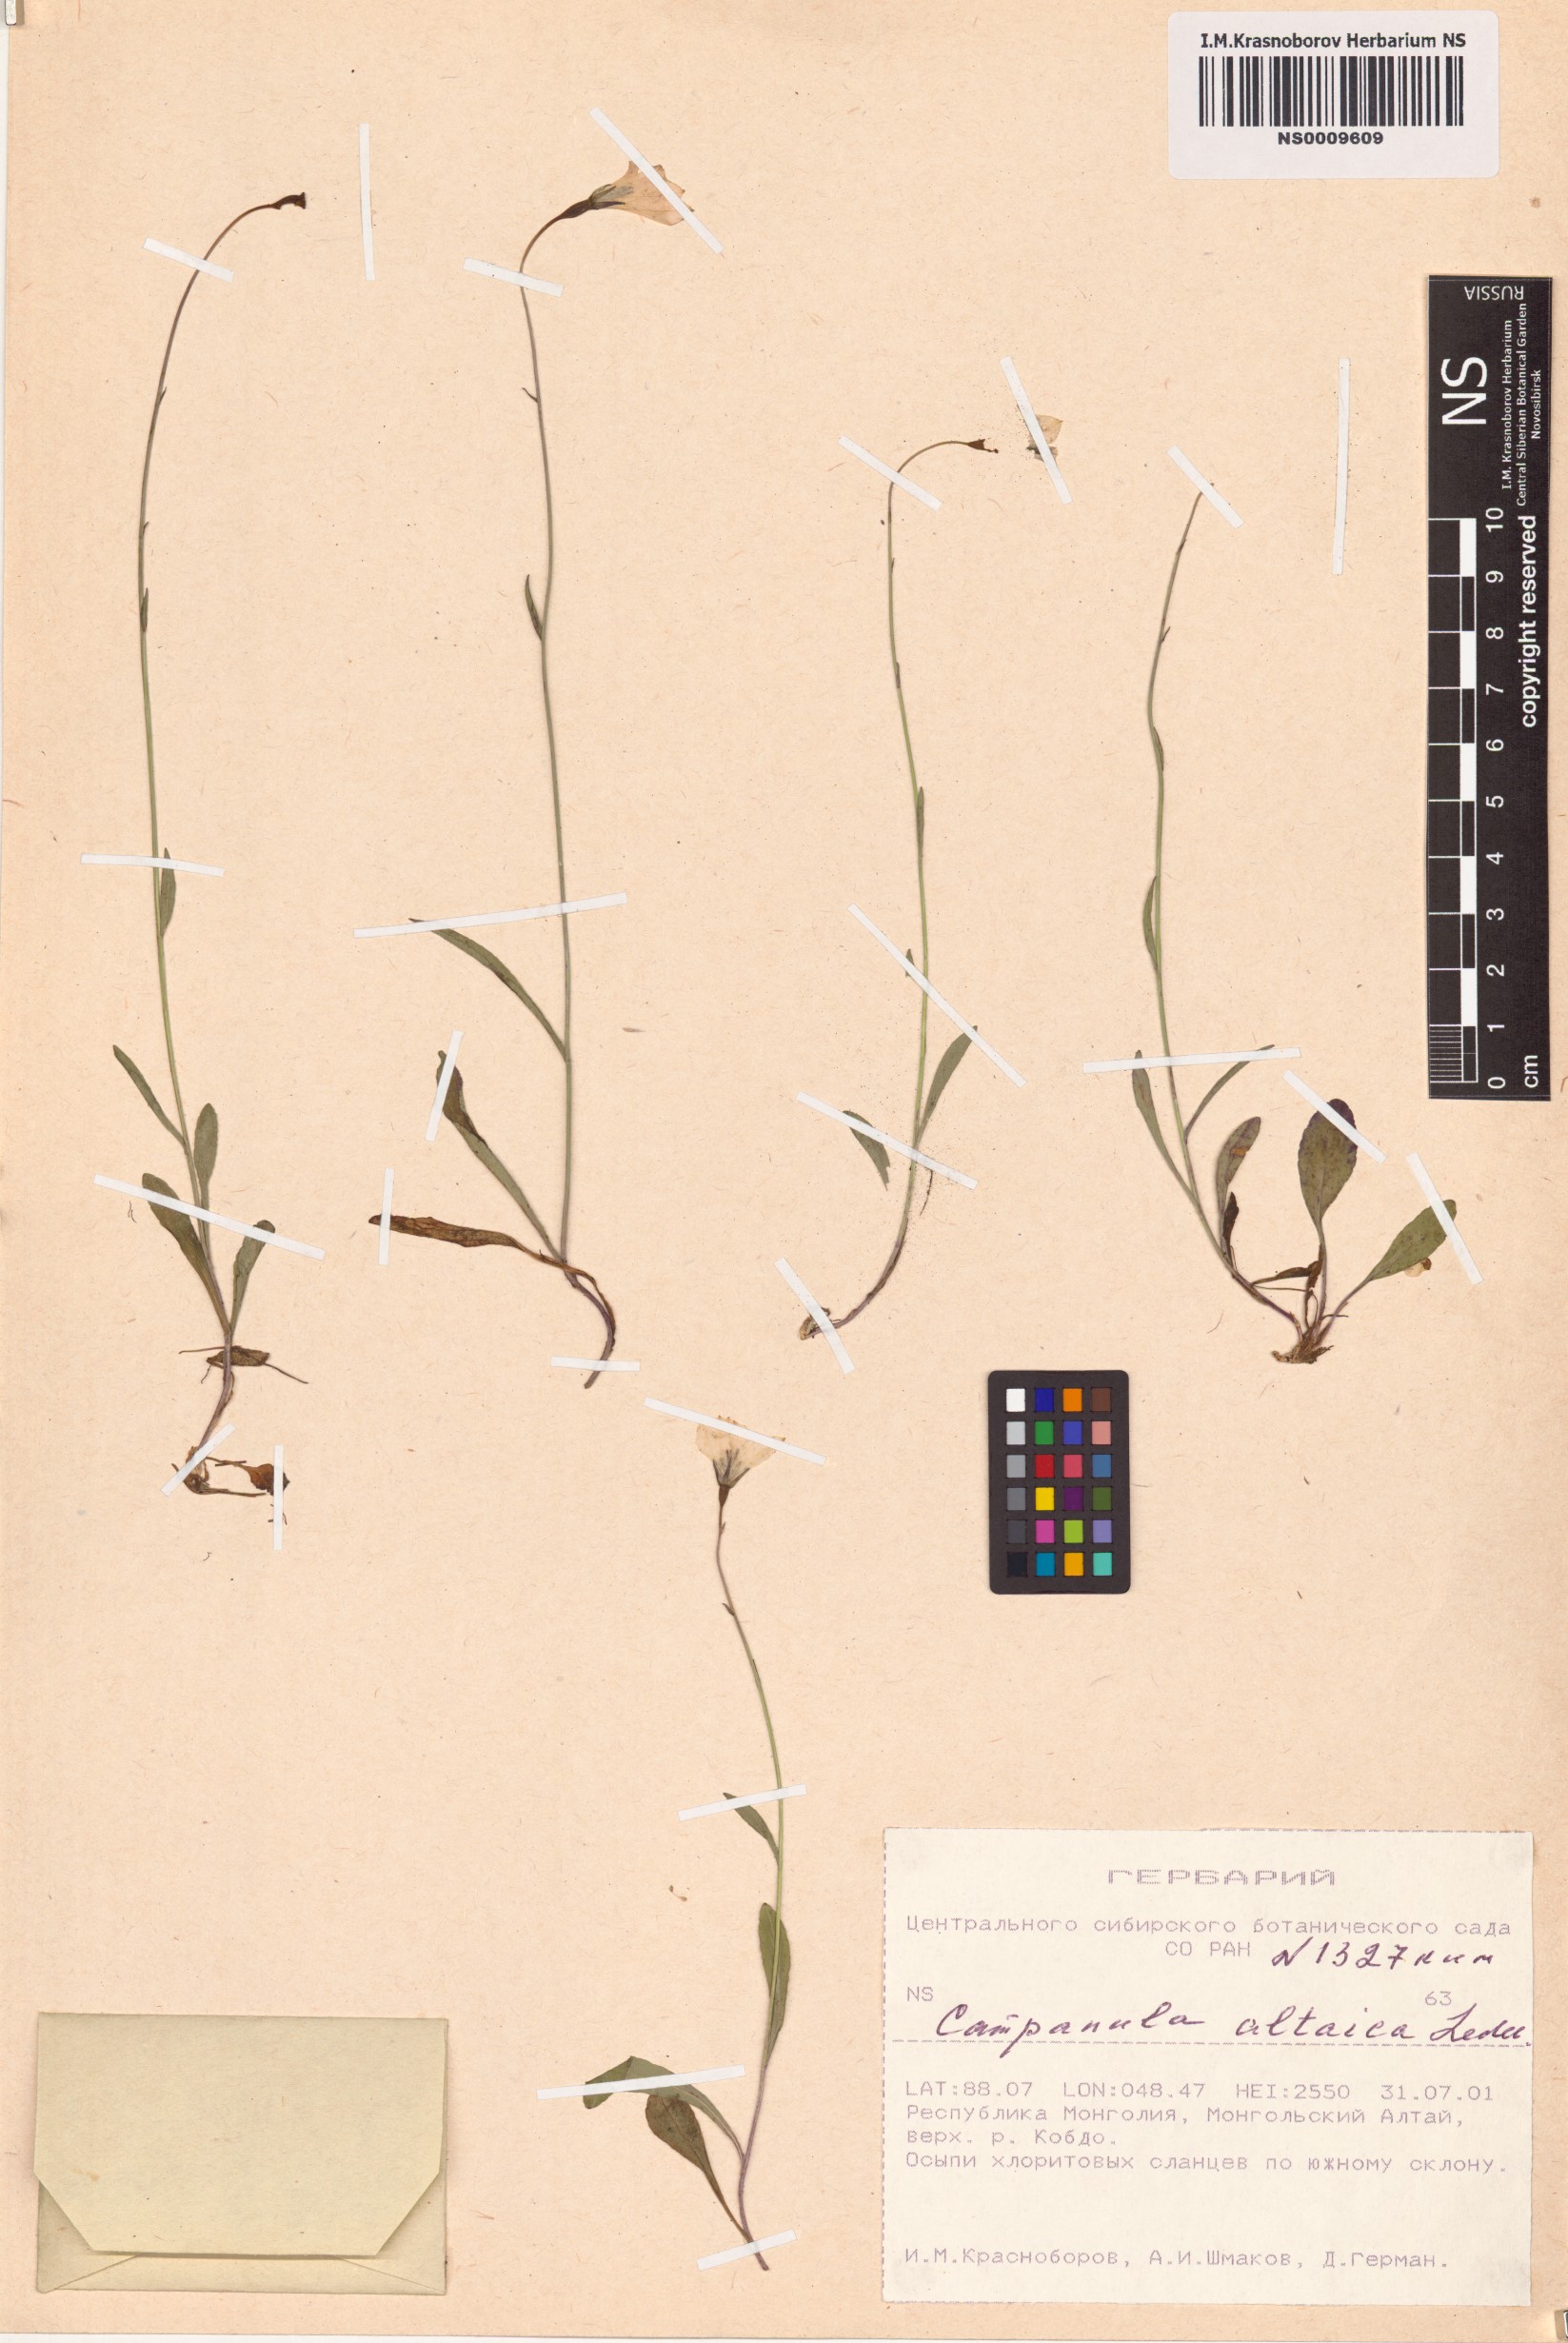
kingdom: Plantae
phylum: Tracheophyta
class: Magnoliopsida
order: Asterales
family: Campanulaceae
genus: Campanula
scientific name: Campanula stevenii
